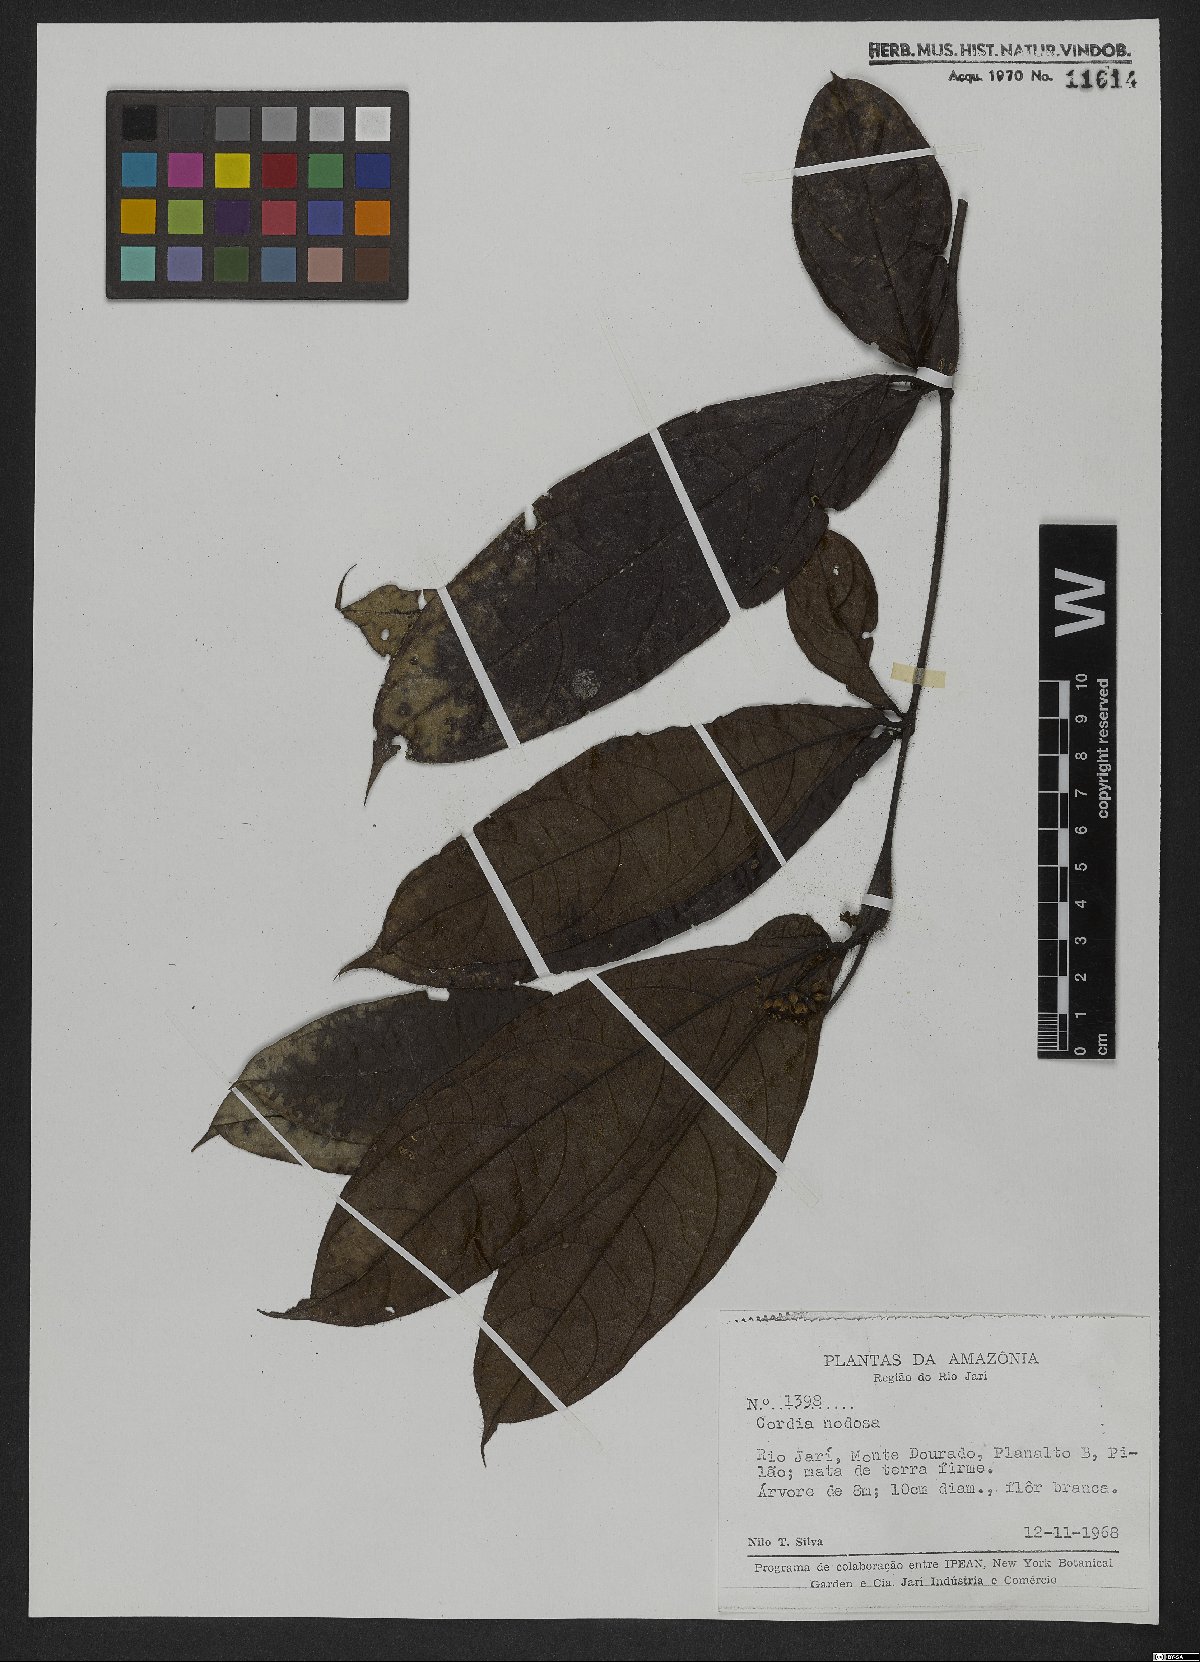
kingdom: Plantae
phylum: Tracheophyta
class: Magnoliopsida
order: Boraginales
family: Cordiaceae
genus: Cordia
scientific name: Cordia nodosa
